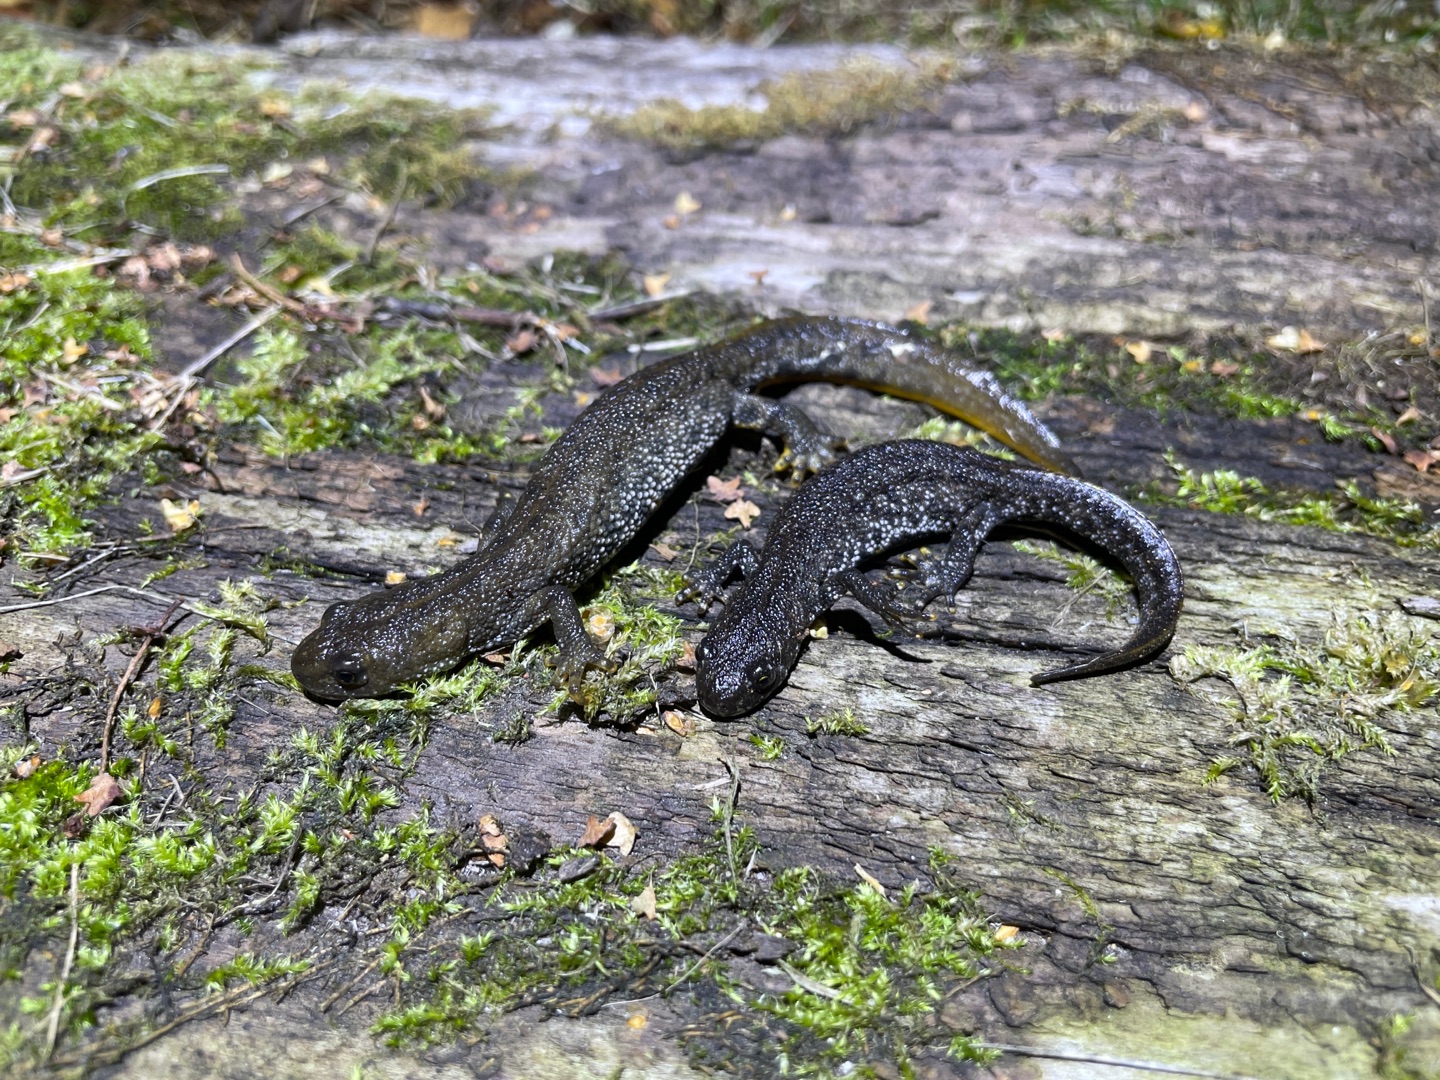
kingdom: Animalia
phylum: Chordata
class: Amphibia
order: Caudata
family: Salamandridae
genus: Triturus
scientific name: Triturus cristatus
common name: Stor vandsalamander
